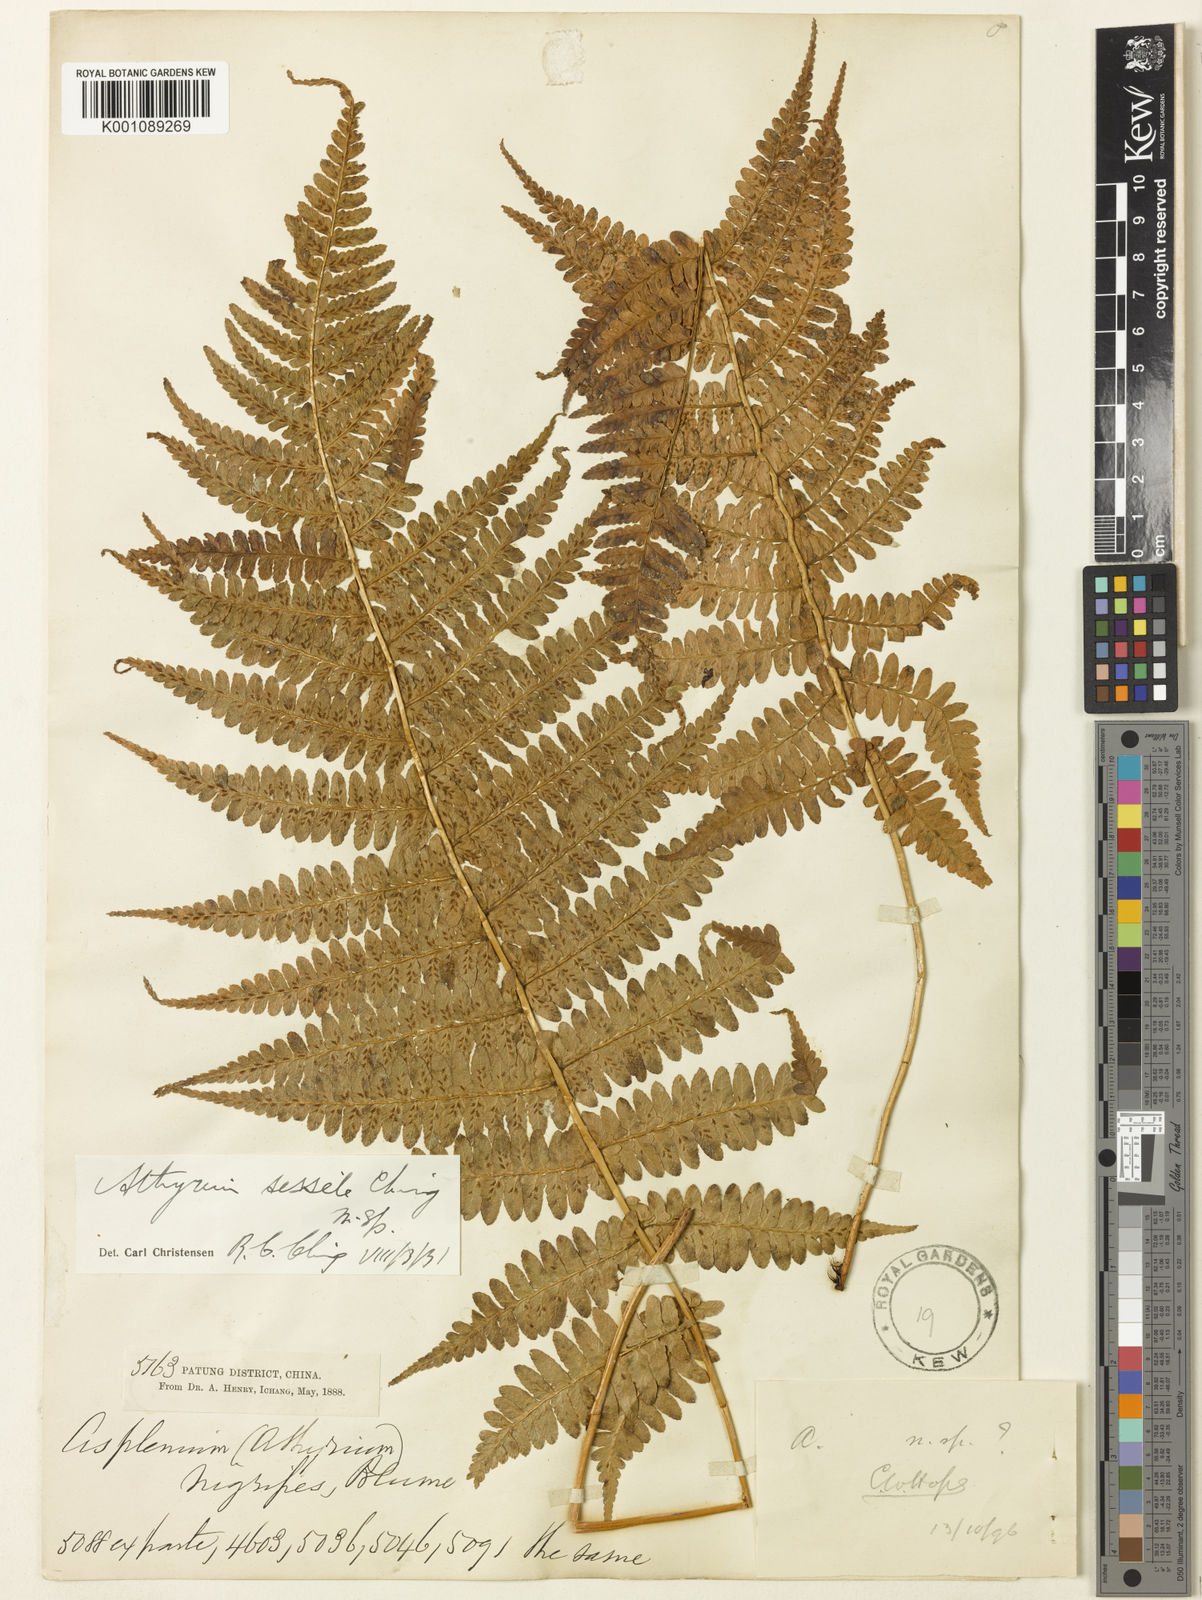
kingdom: Plantae
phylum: Tracheophyta
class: Polypodiopsida
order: Polypodiales
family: Athyriaceae
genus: Athyrium
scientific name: Athyrium pubicostatum
